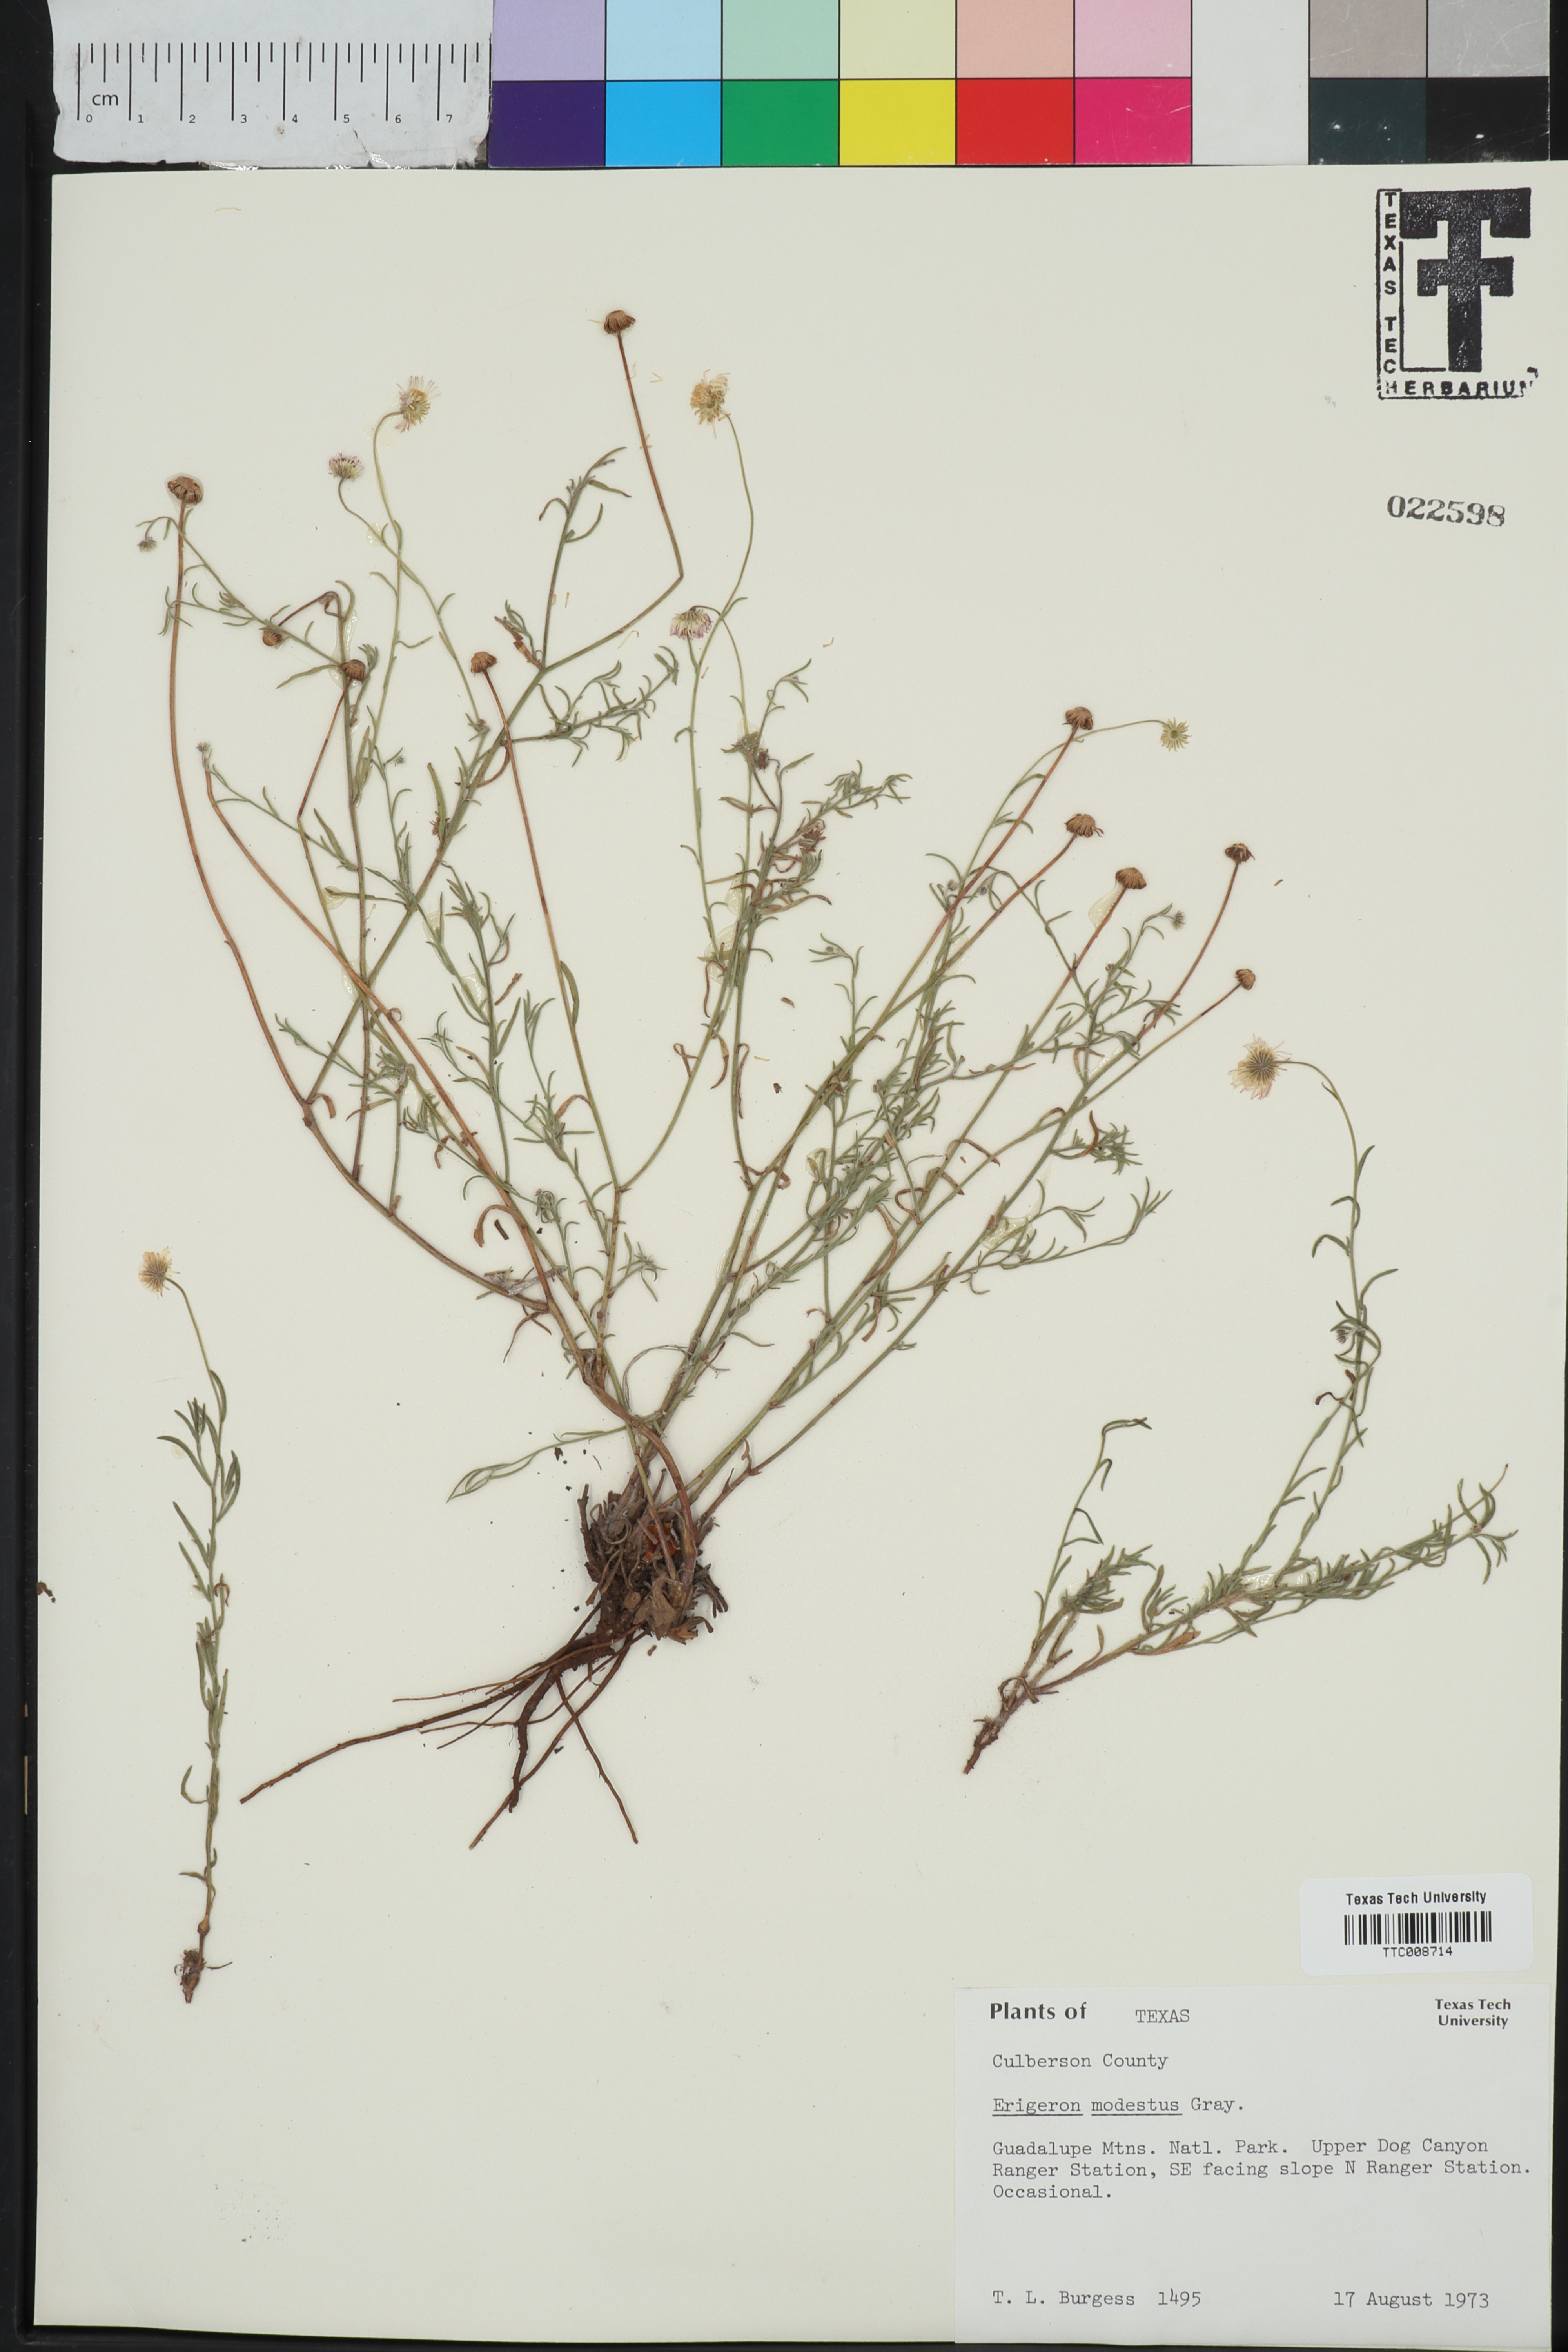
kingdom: Plantae
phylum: Tracheophyta
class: Magnoliopsida
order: Asterales
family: Asteraceae
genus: Erigeron
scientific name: Erigeron modestus
